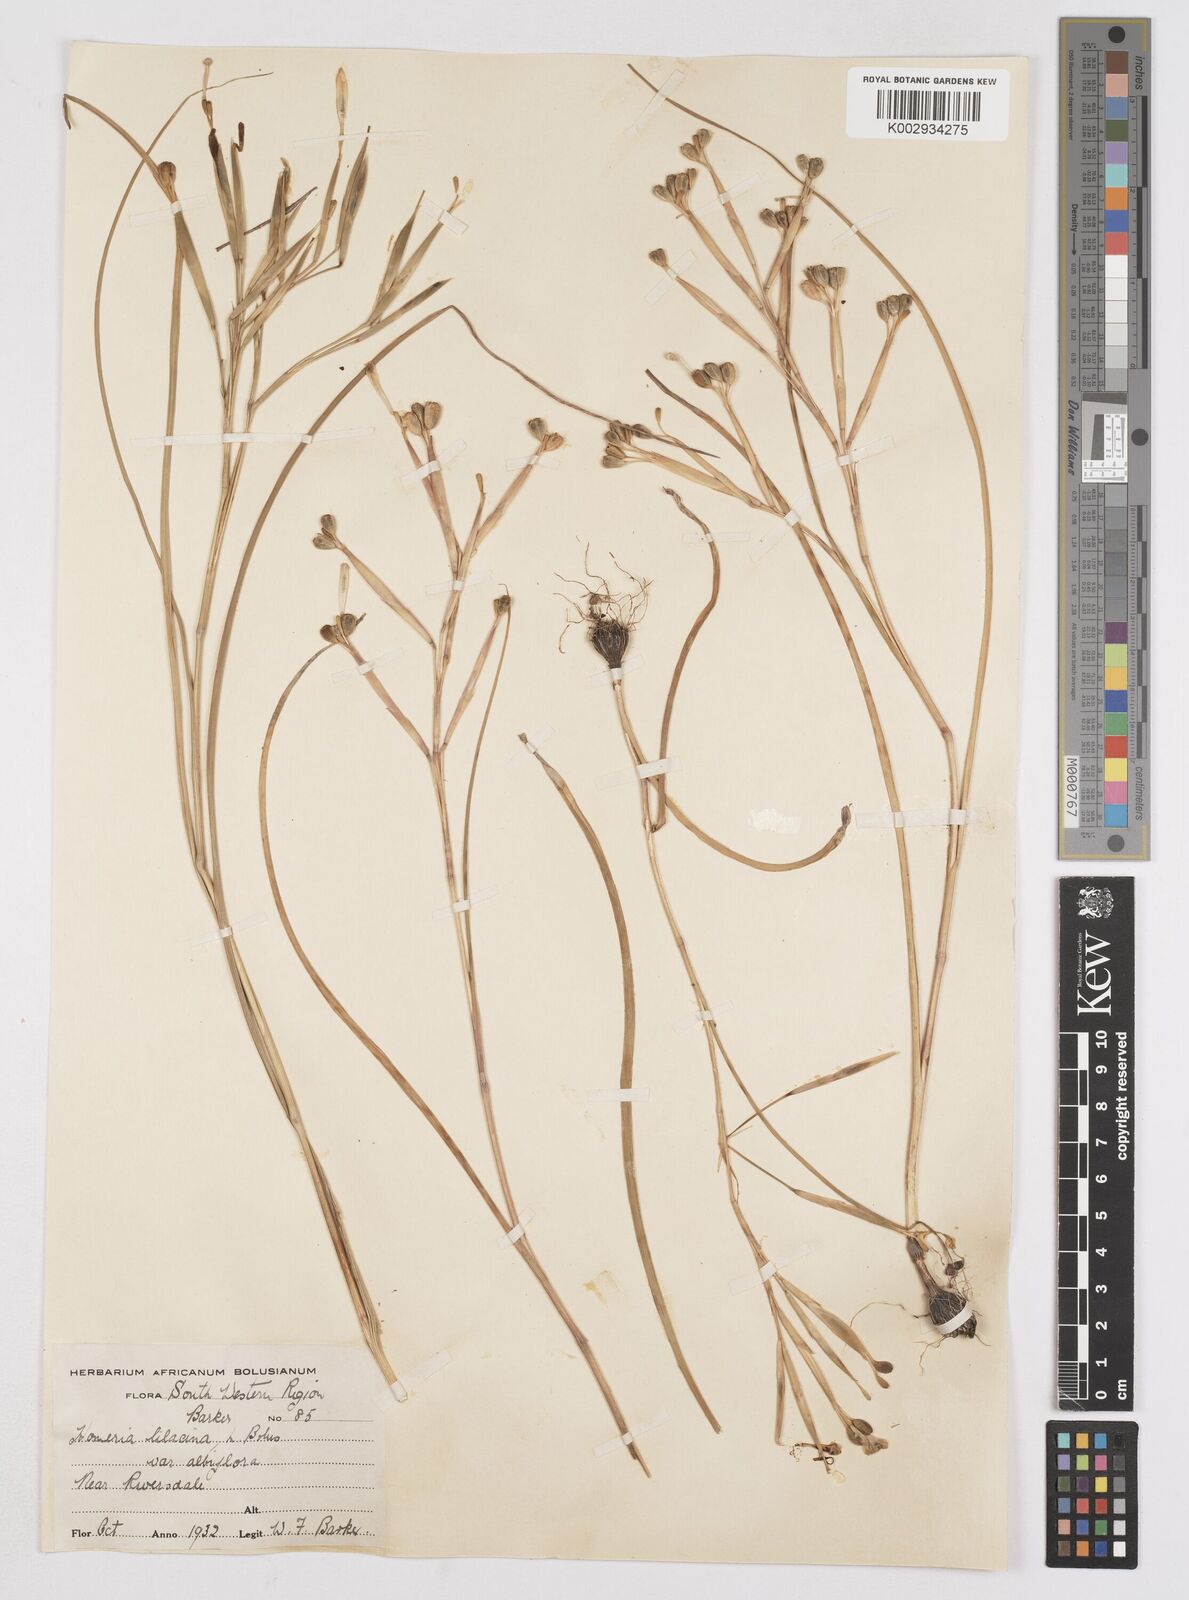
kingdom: Plantae
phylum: Tracheophyta
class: Liliopsida
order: Asparagales
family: Iridaceae
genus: Moraea
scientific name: Moraea
